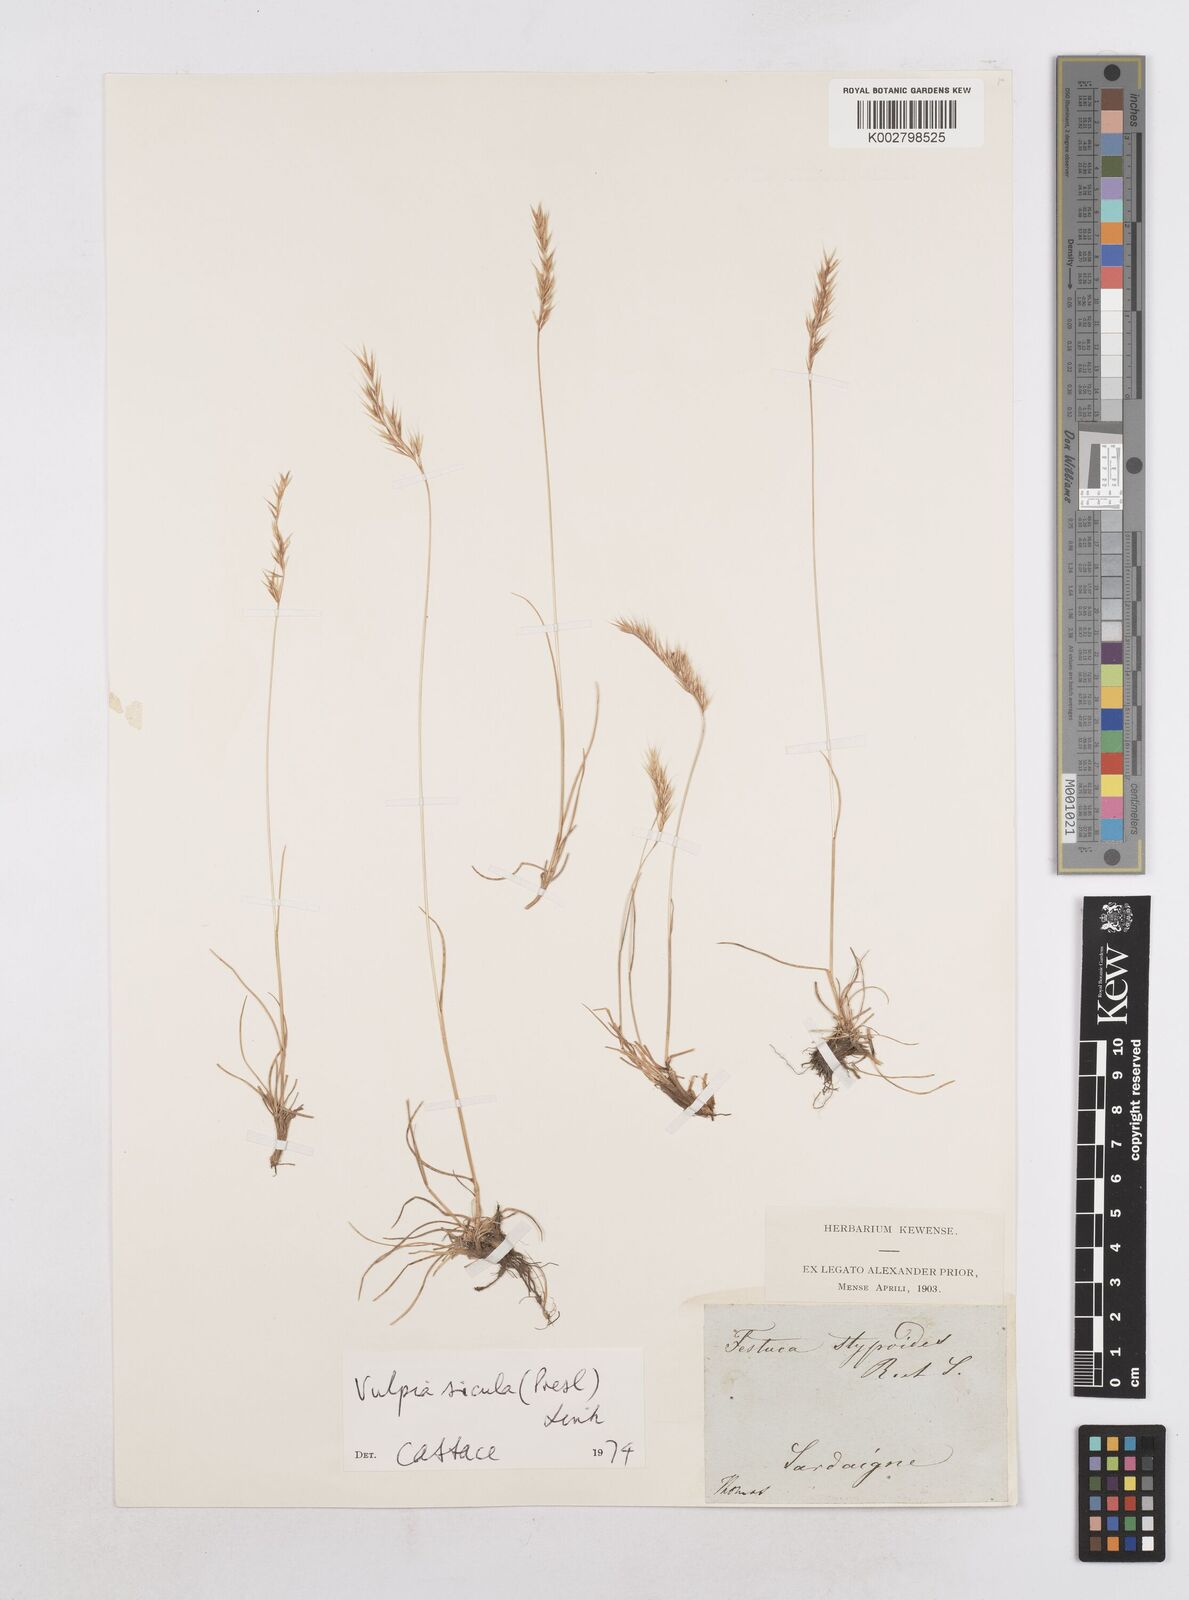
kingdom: Plantae
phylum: Tracheophyta
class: Liliopsida
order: Poales
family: Poaceae
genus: Festuca
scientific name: Festuca sicula
